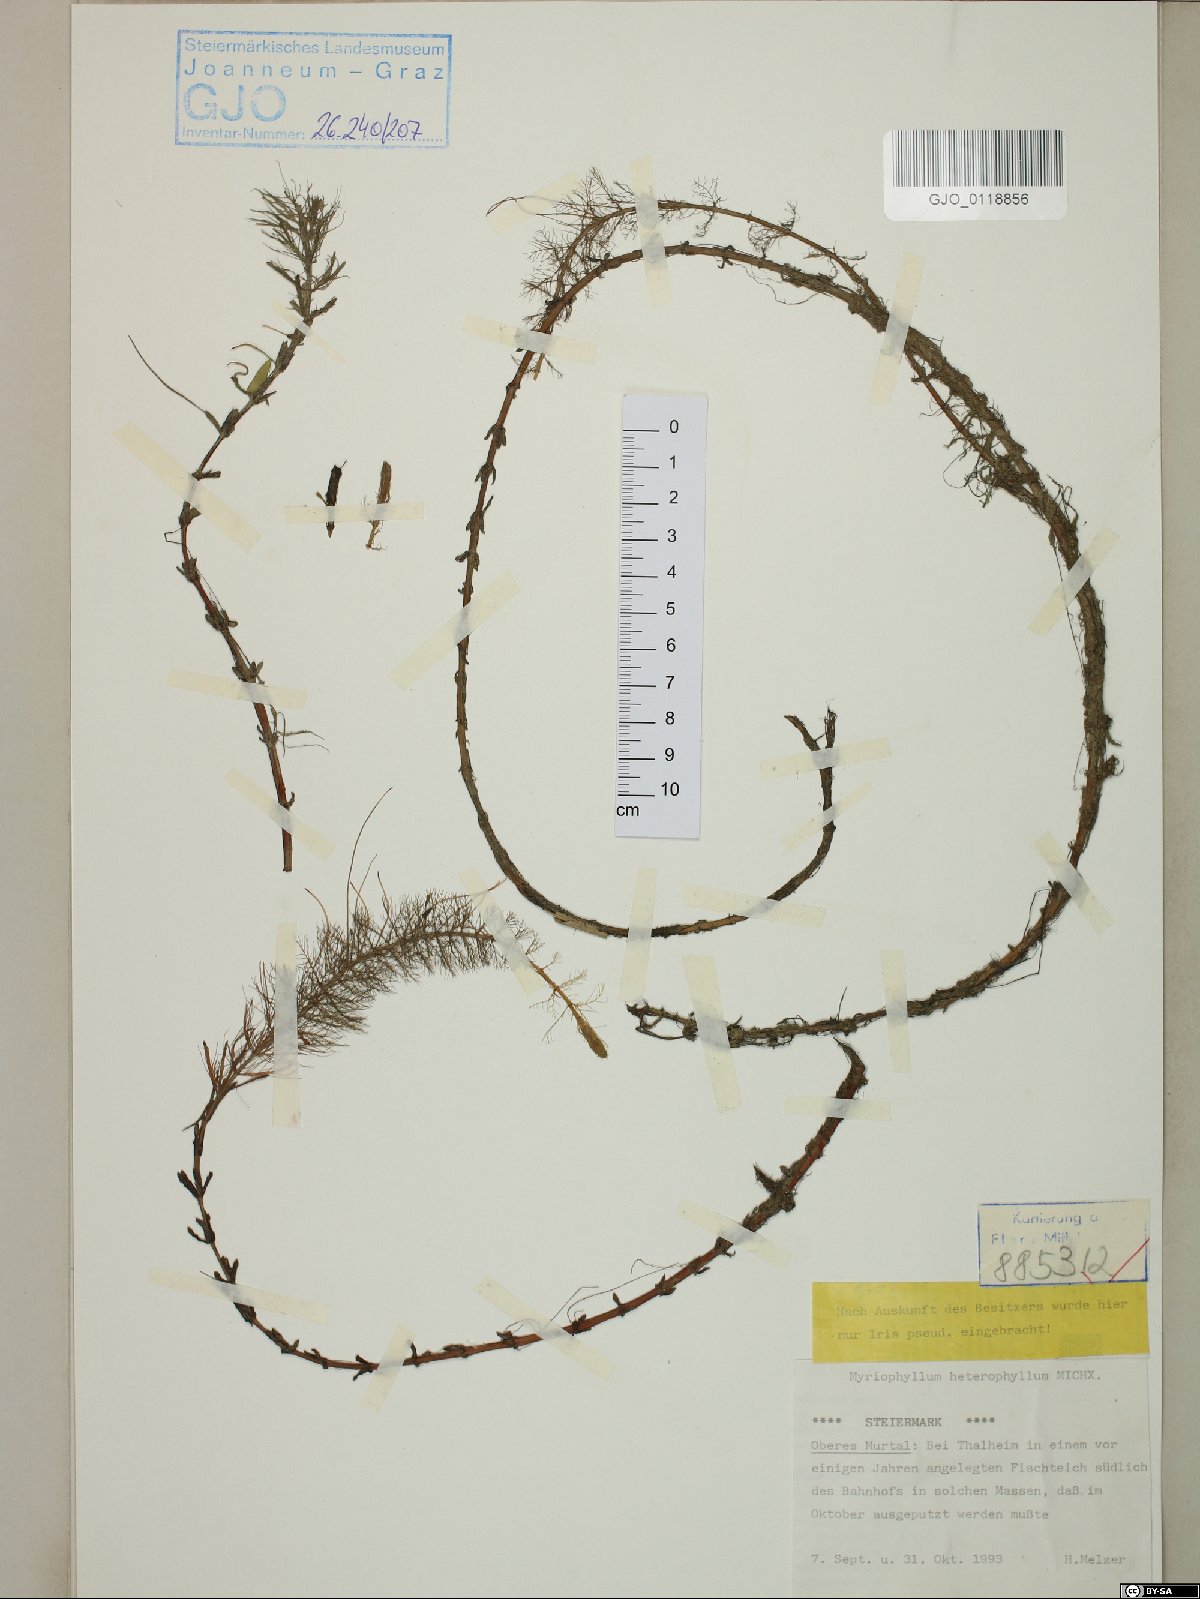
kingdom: Plantae
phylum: Tracheophyta
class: Magnoliopsida
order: Saxifragales
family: Haloragaceae
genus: Myriophyllum
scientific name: Myriophyllum heterophyllum
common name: Variable watermilfoil
